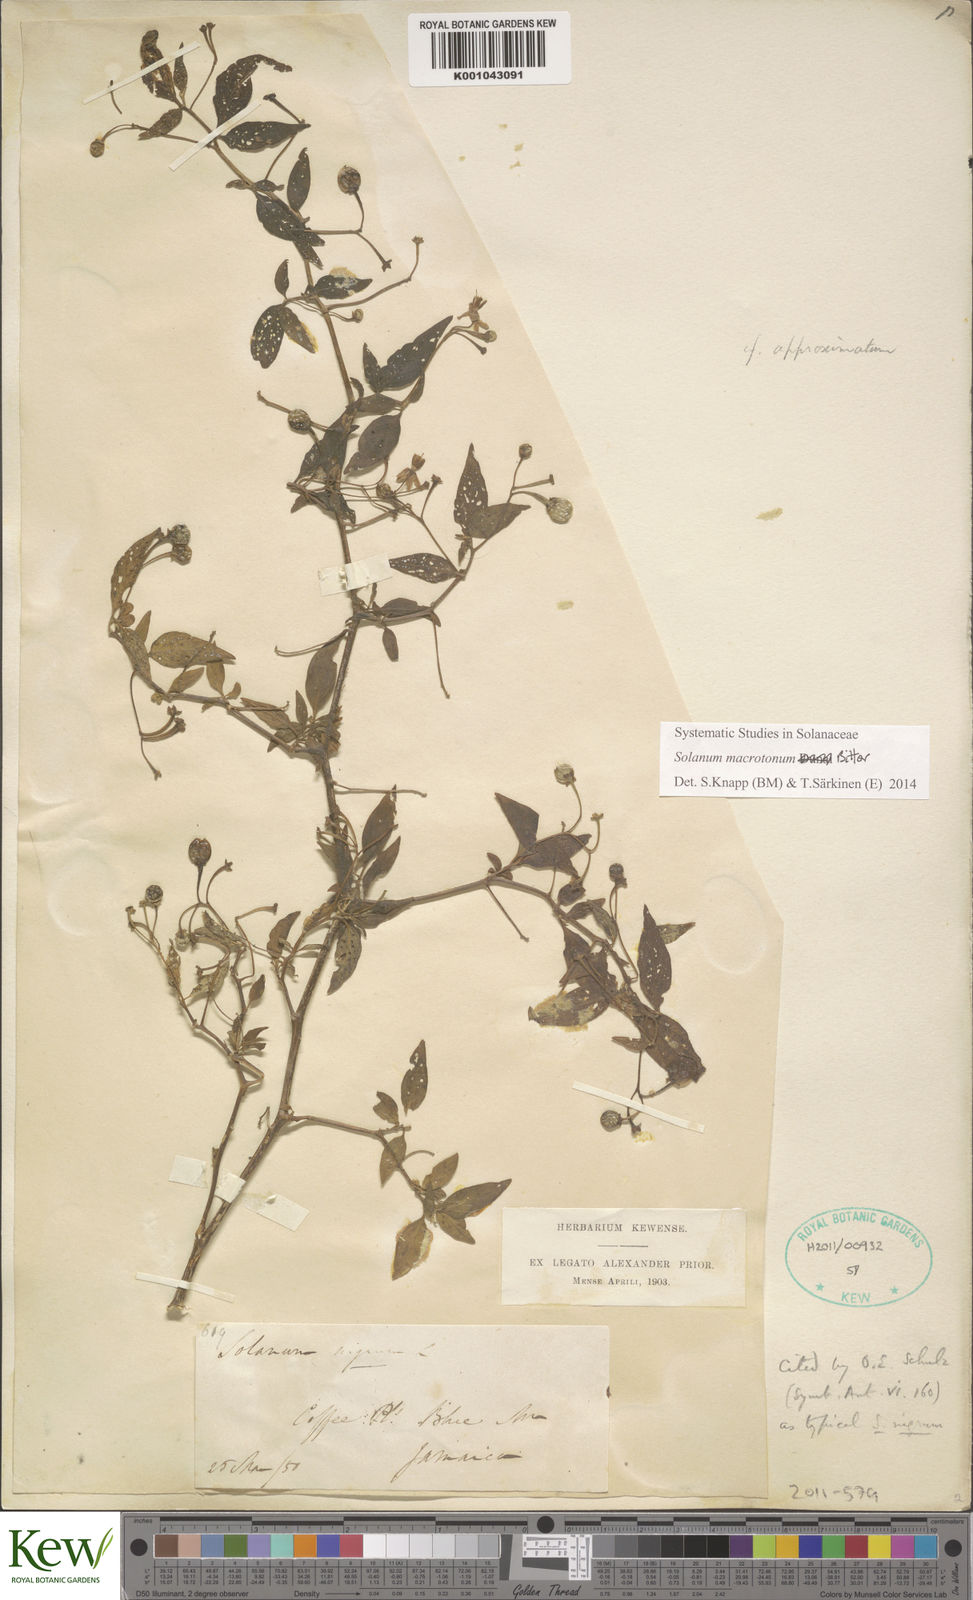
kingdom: Plantae
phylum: Tracheophyta
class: Magnoliopsida
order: Solanales
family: Solanaceae
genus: Solanum
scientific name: Solanum macrotonum
